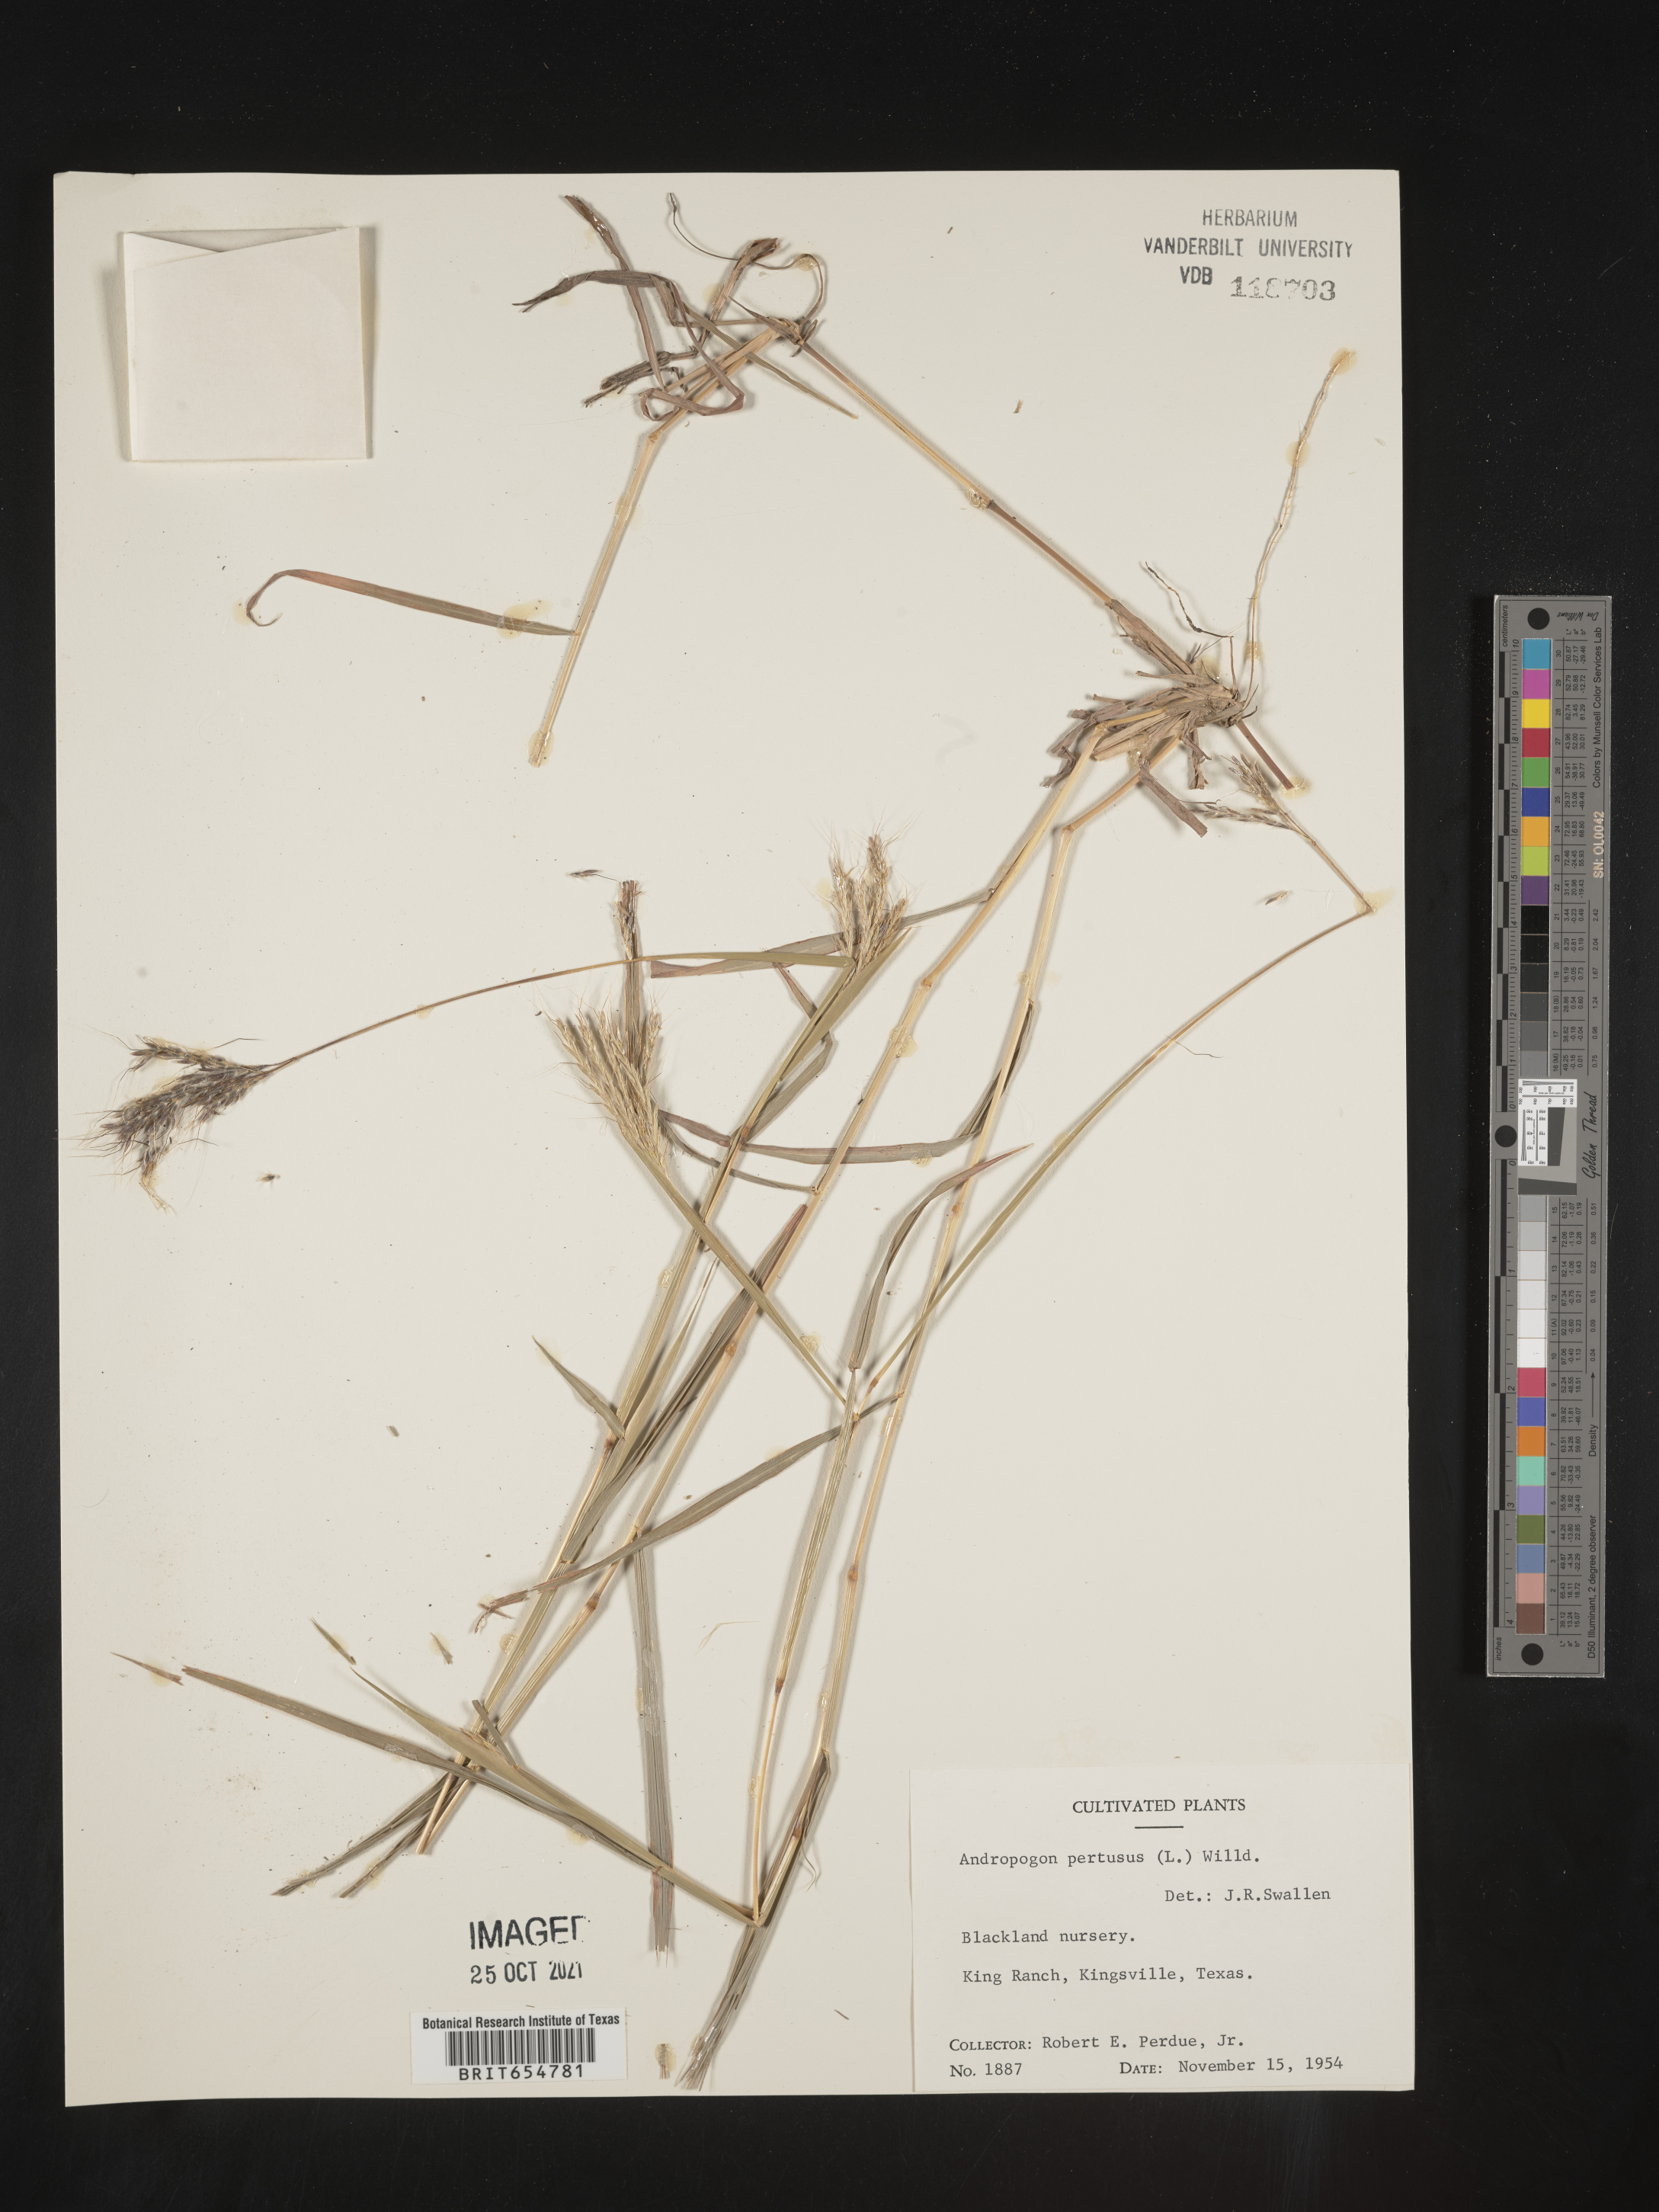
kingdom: Plantae
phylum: Tracheophyta
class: Liliopsida
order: Poales
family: Poaceae
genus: Andropogon
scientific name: Andropogon
